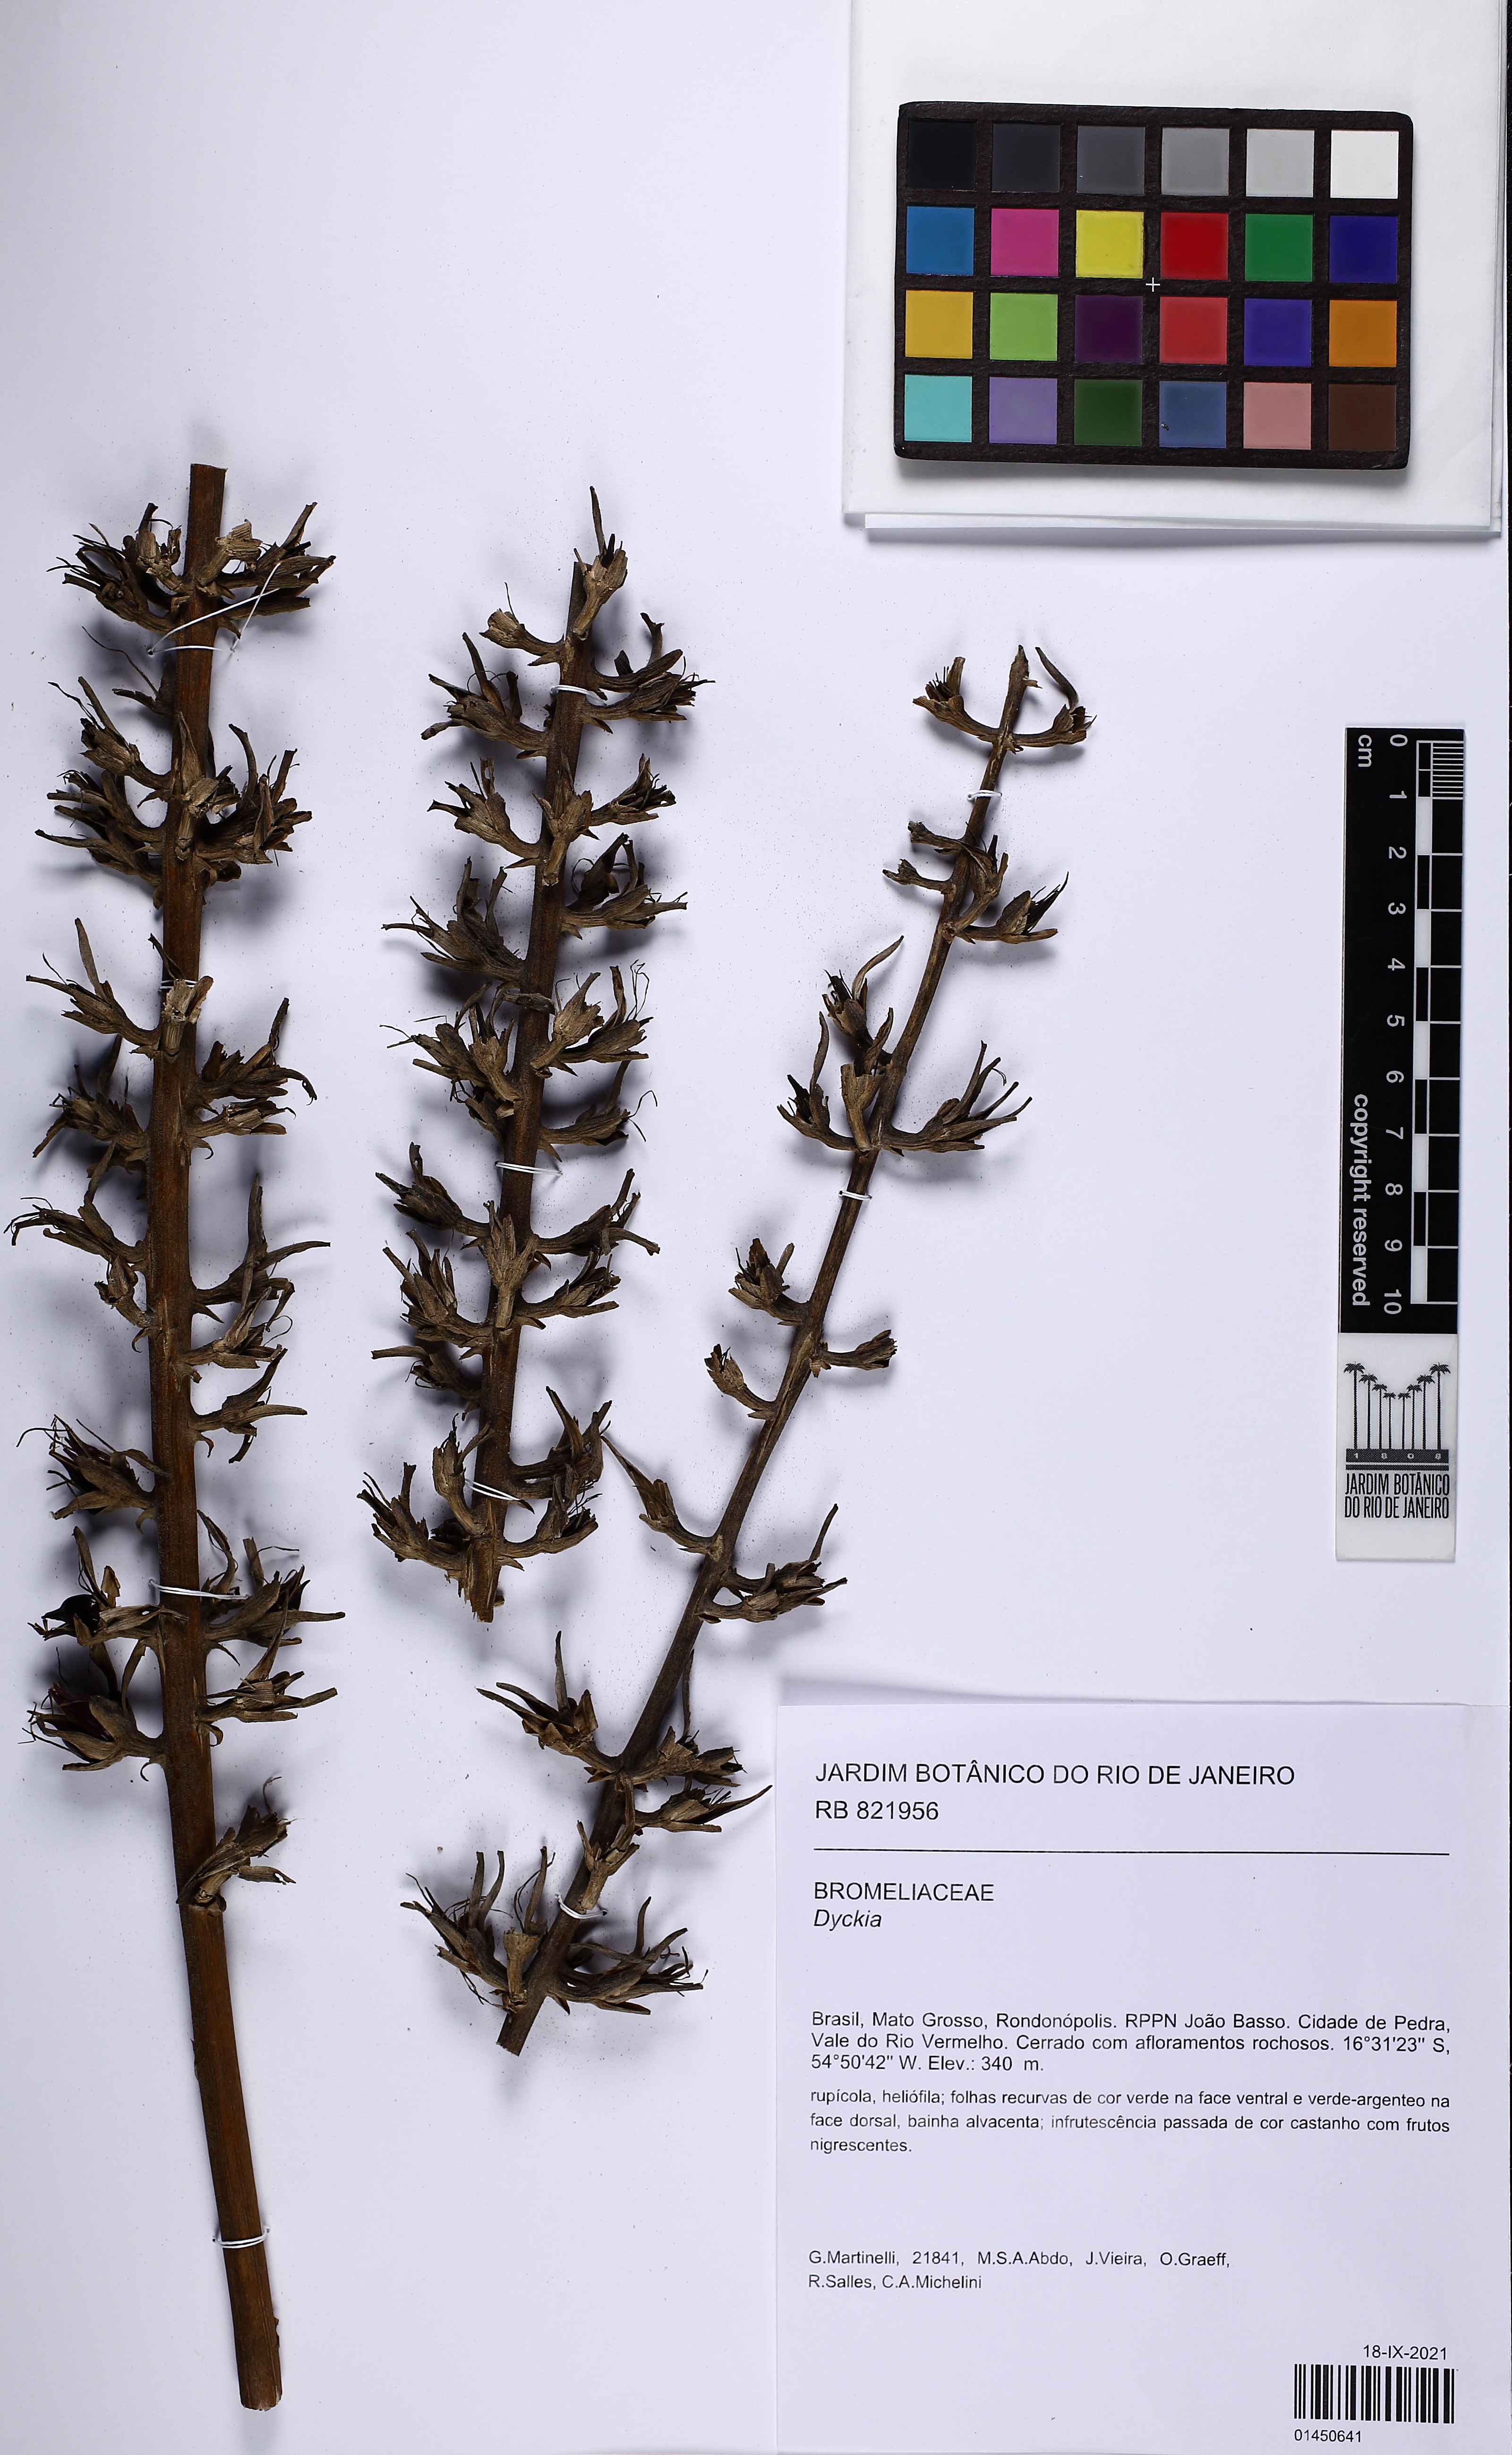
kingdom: Plantae
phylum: Tracheophyta
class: Liliopsida
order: Poales
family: Bromeliaceae
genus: Dyckia
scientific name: Dyckia
